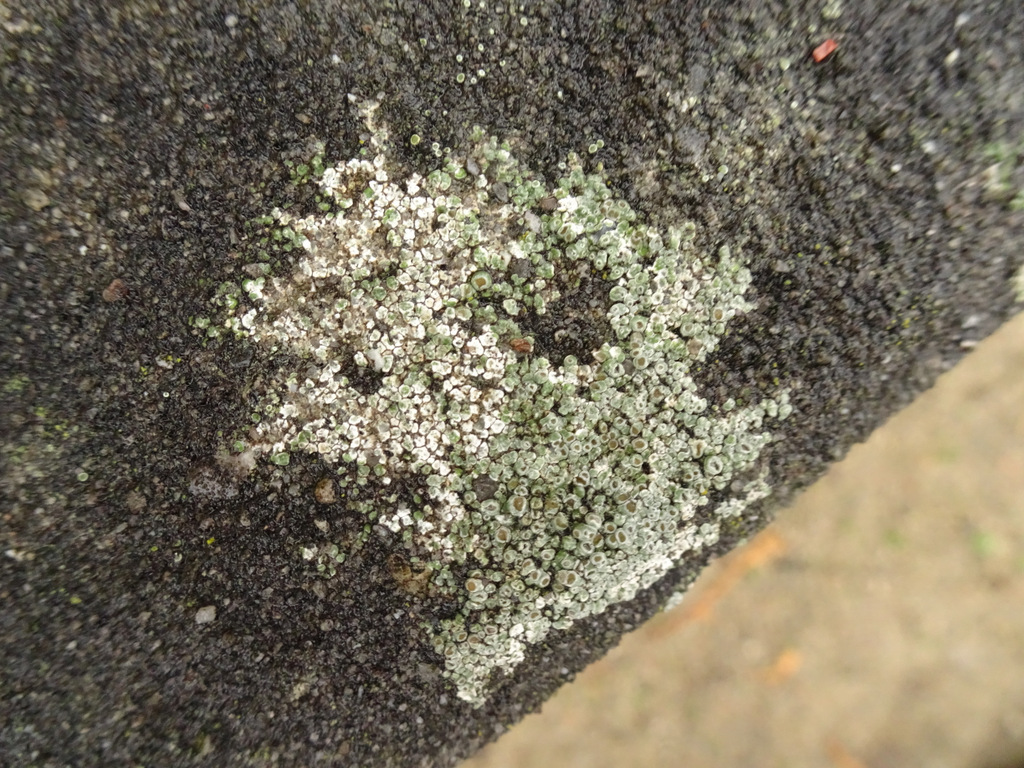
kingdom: Fungi
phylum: Ascomycota
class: Lecanoromycetes
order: Pertusariales
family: Megasporaceae
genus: Circinaria
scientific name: Circinaria contorta
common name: indviklet hulskivelav
